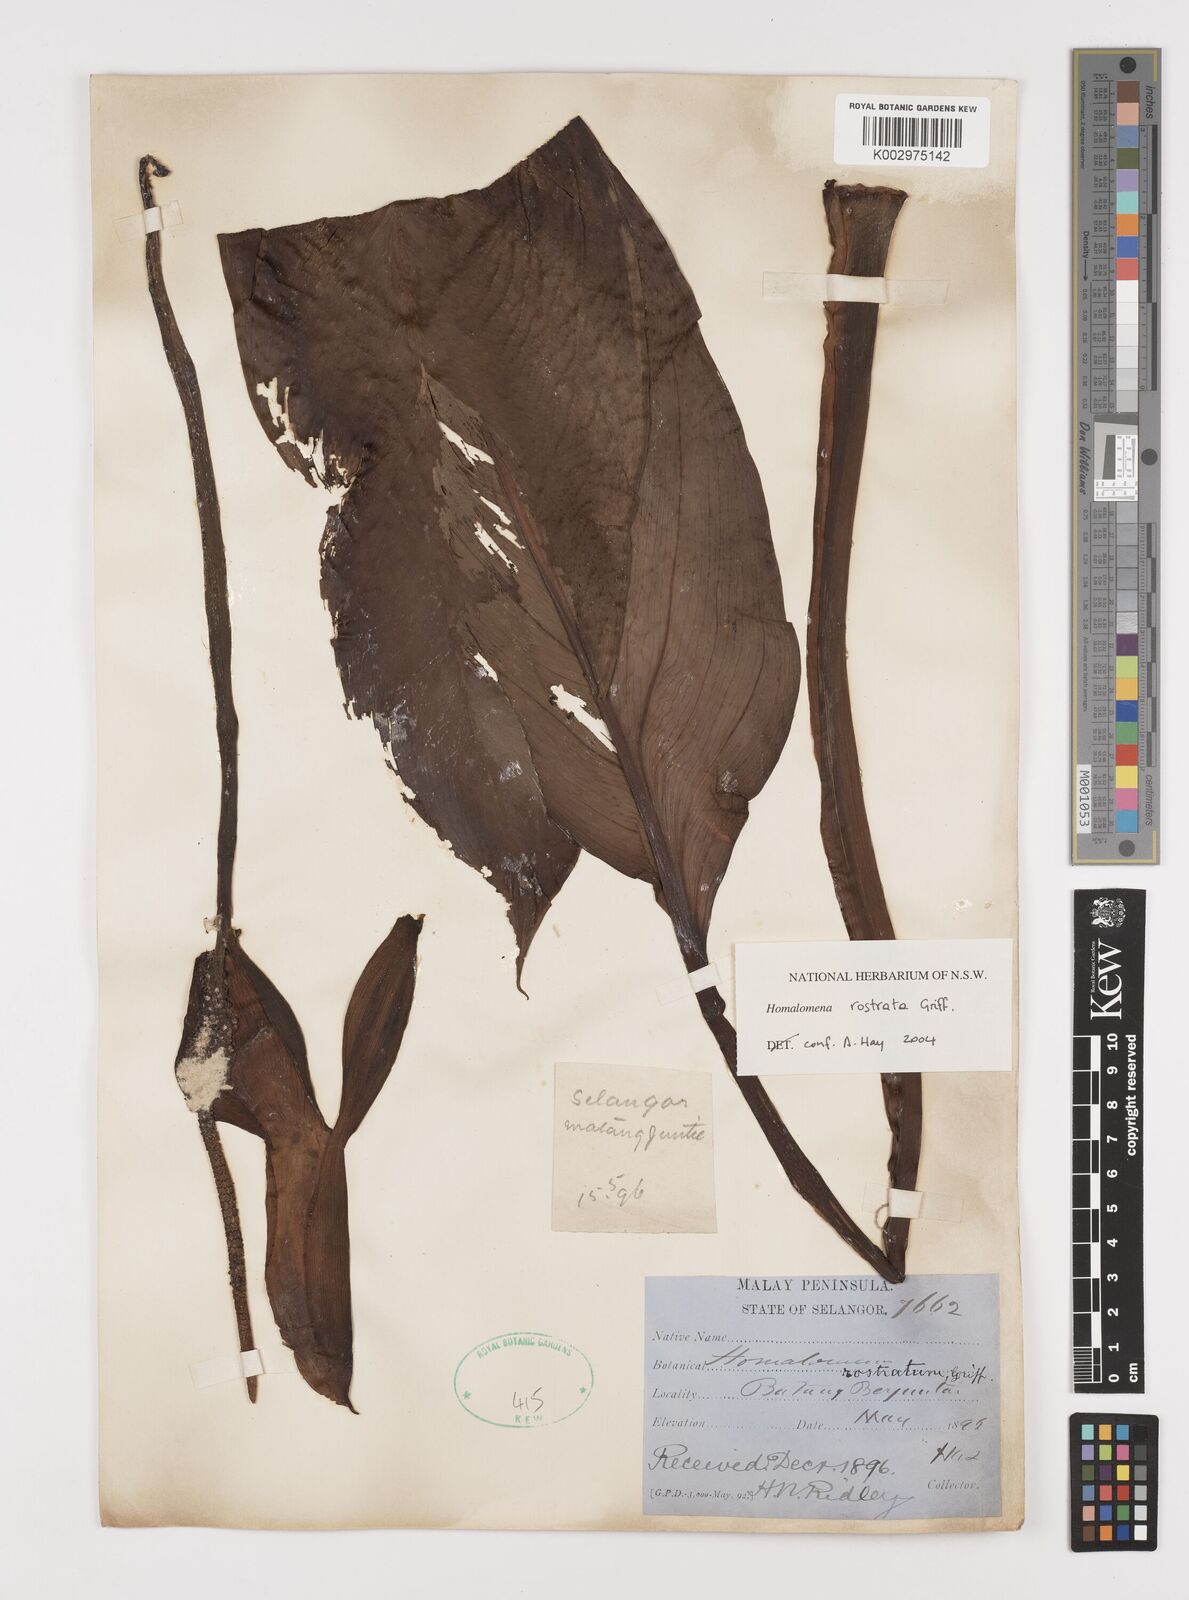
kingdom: Plantae
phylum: Tracheophyta
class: Liliopsida
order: Alismatales
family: Araceae
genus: Homalomena
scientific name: Homalomena rostrata
